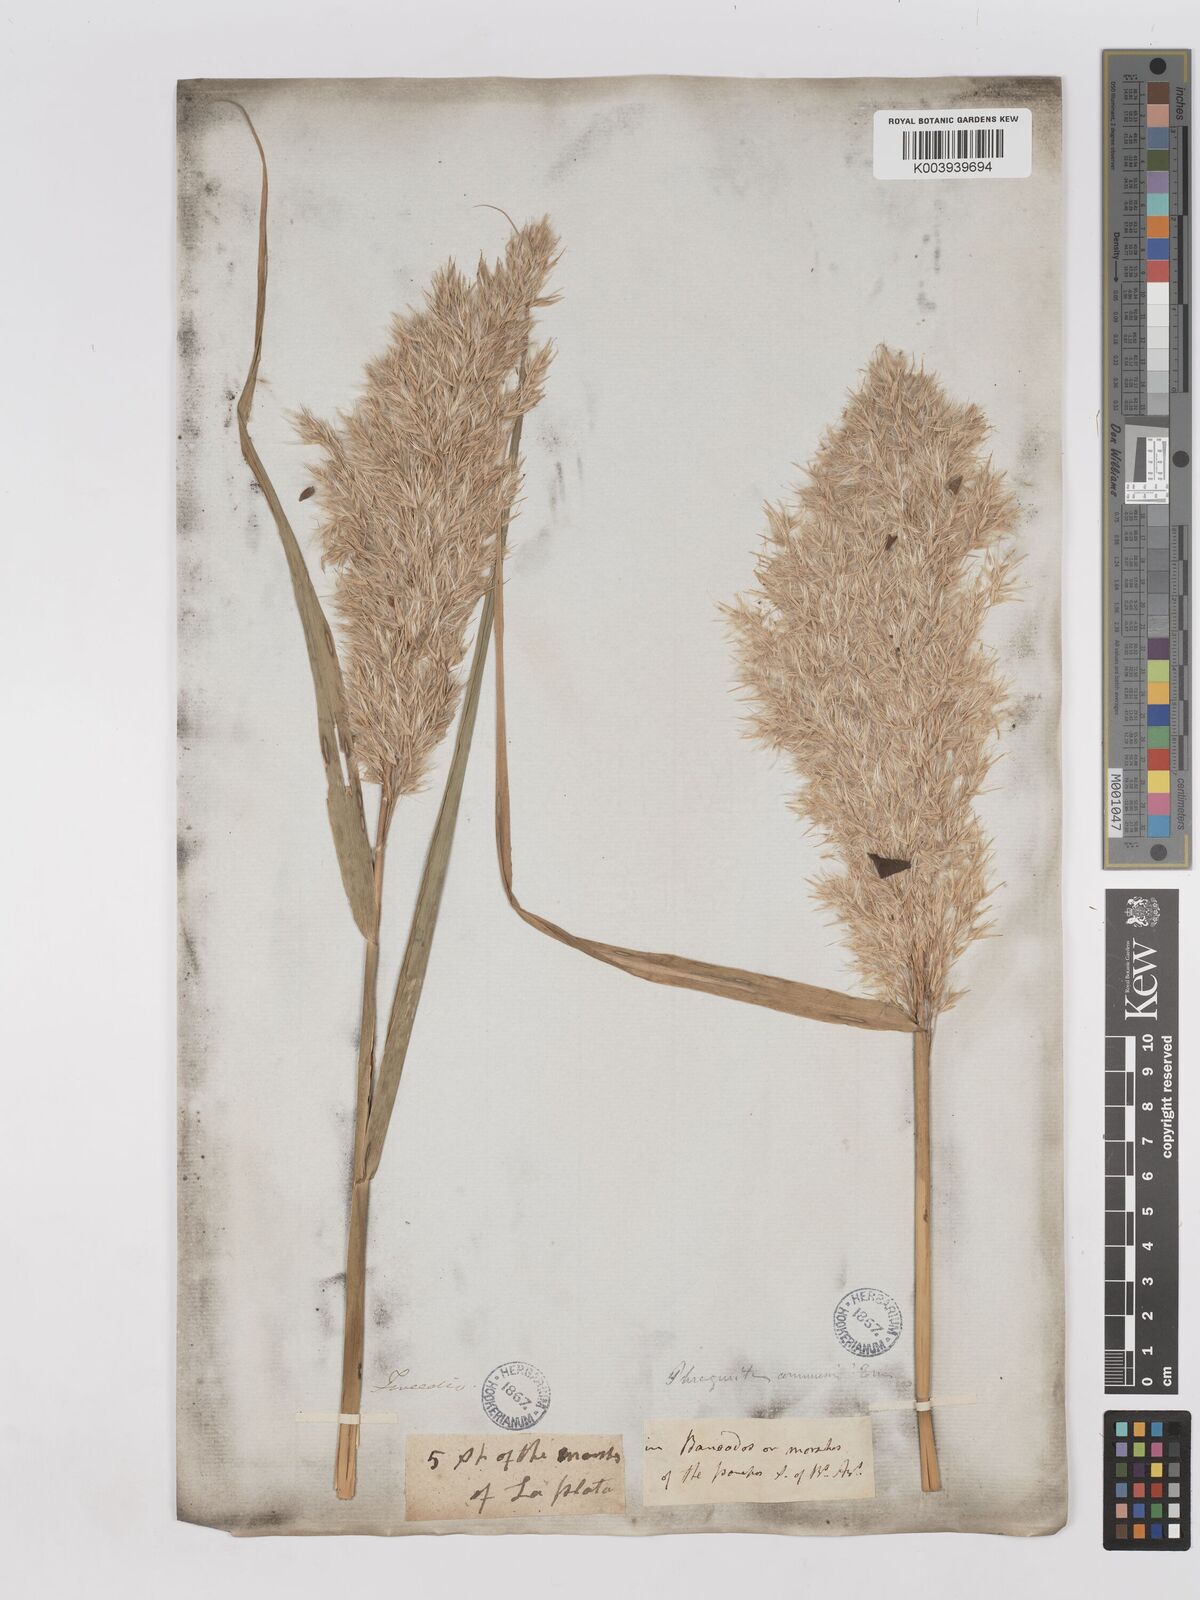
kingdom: Plantae
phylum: Tracheophyta
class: Liliopsida
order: Poales
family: Poaceae
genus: Phragmites
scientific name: Phragmites australis
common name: Common reed
